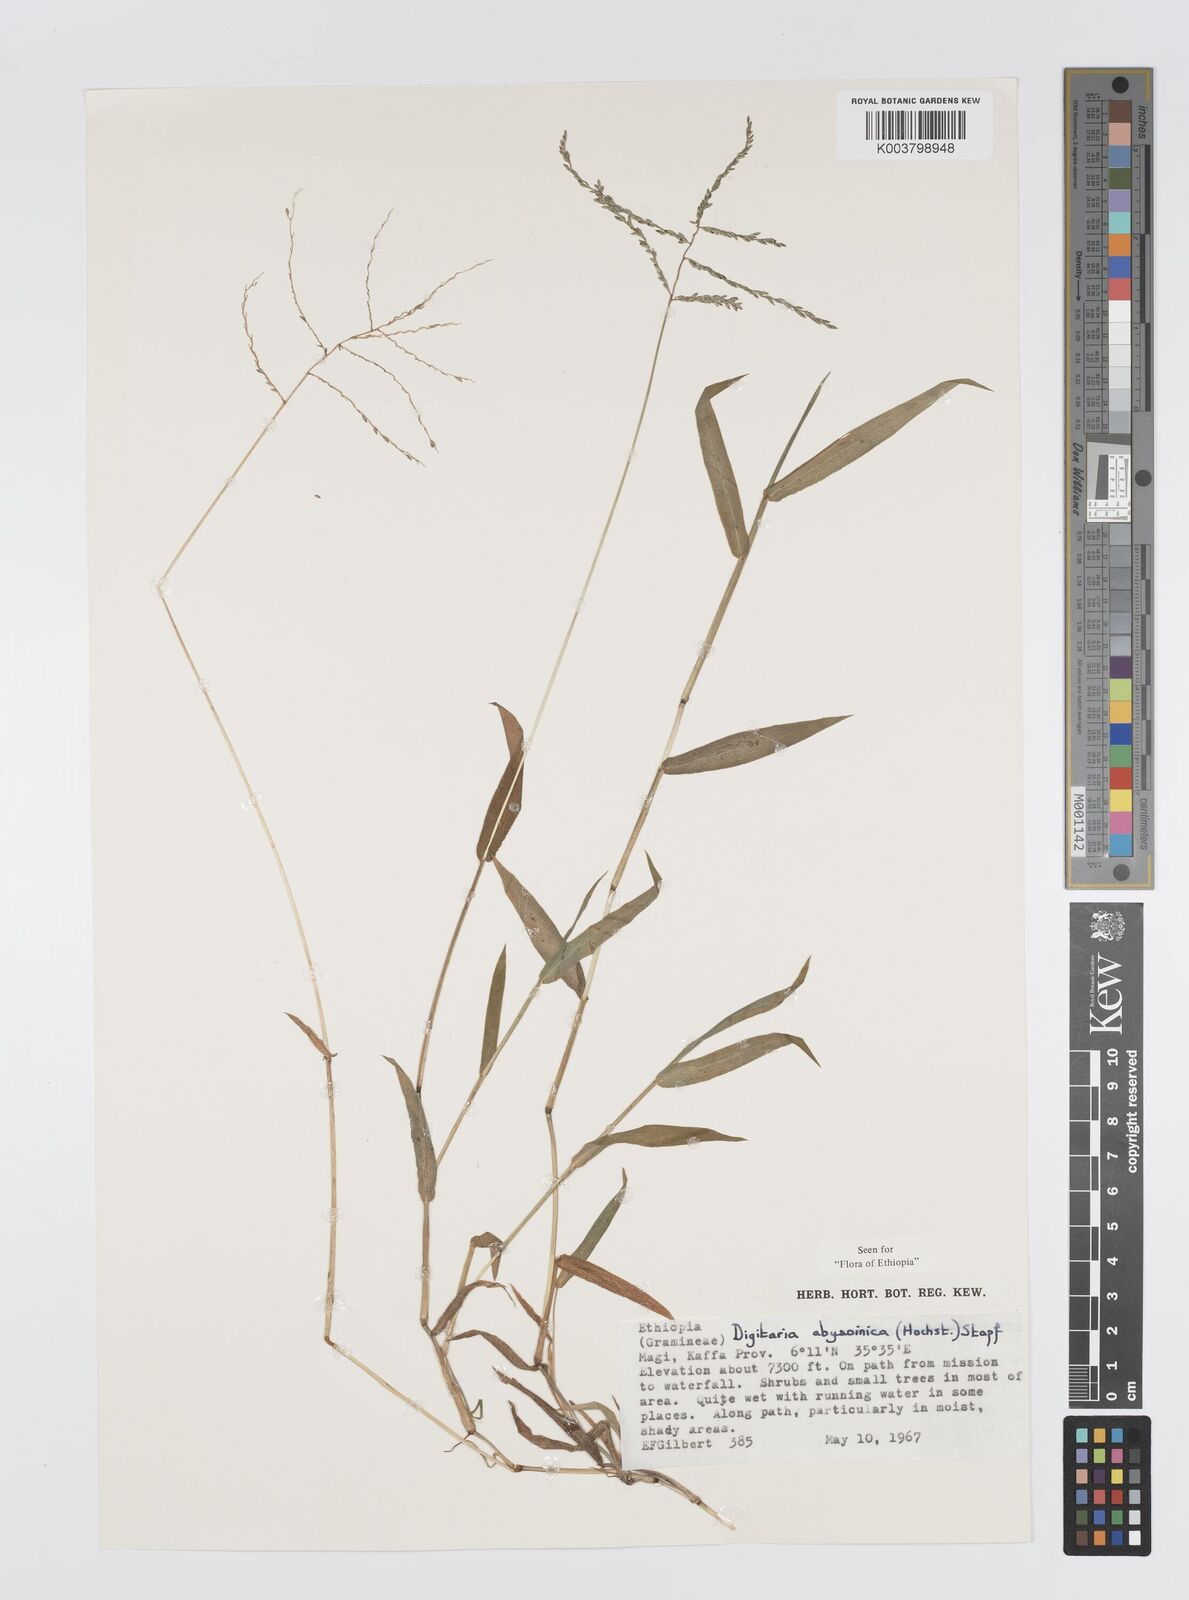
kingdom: Plantae
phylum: Tracheophyta
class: Liliopsida
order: Poales
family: Poaceae
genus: Digitaria
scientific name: Digitaria abyssinica
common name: African couchgrass
